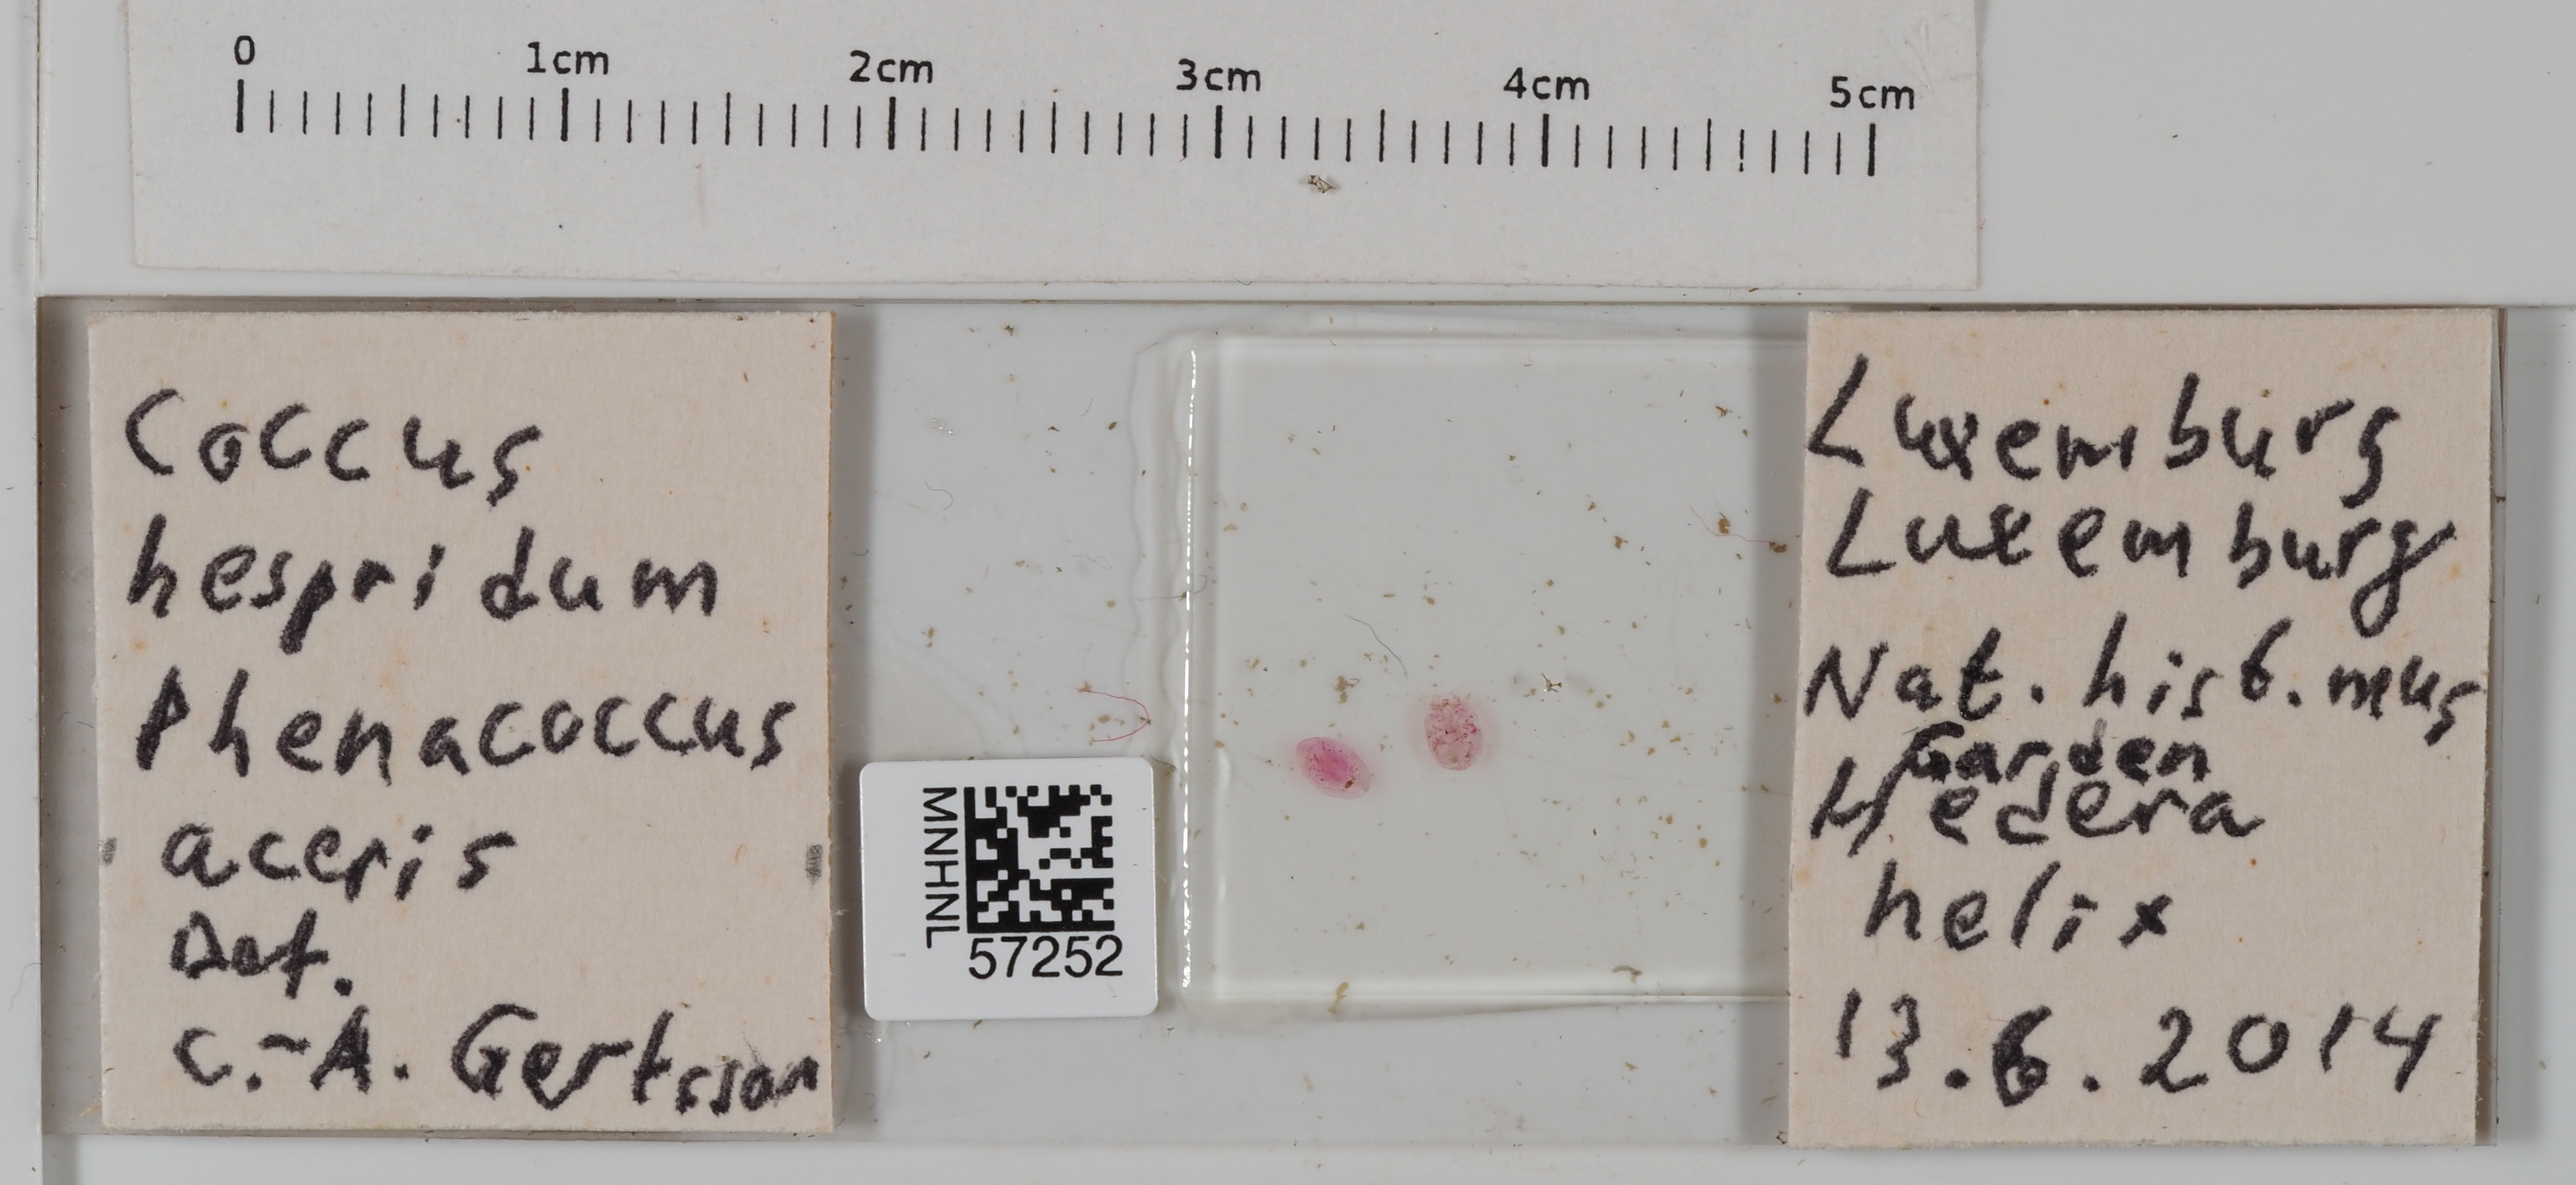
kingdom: Animalia
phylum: Arthropoda
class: Insecta
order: Hemiptera
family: Pseudococcidae
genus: Phenacoccus
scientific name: Phenacoccus aceris
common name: Apple mealybug
